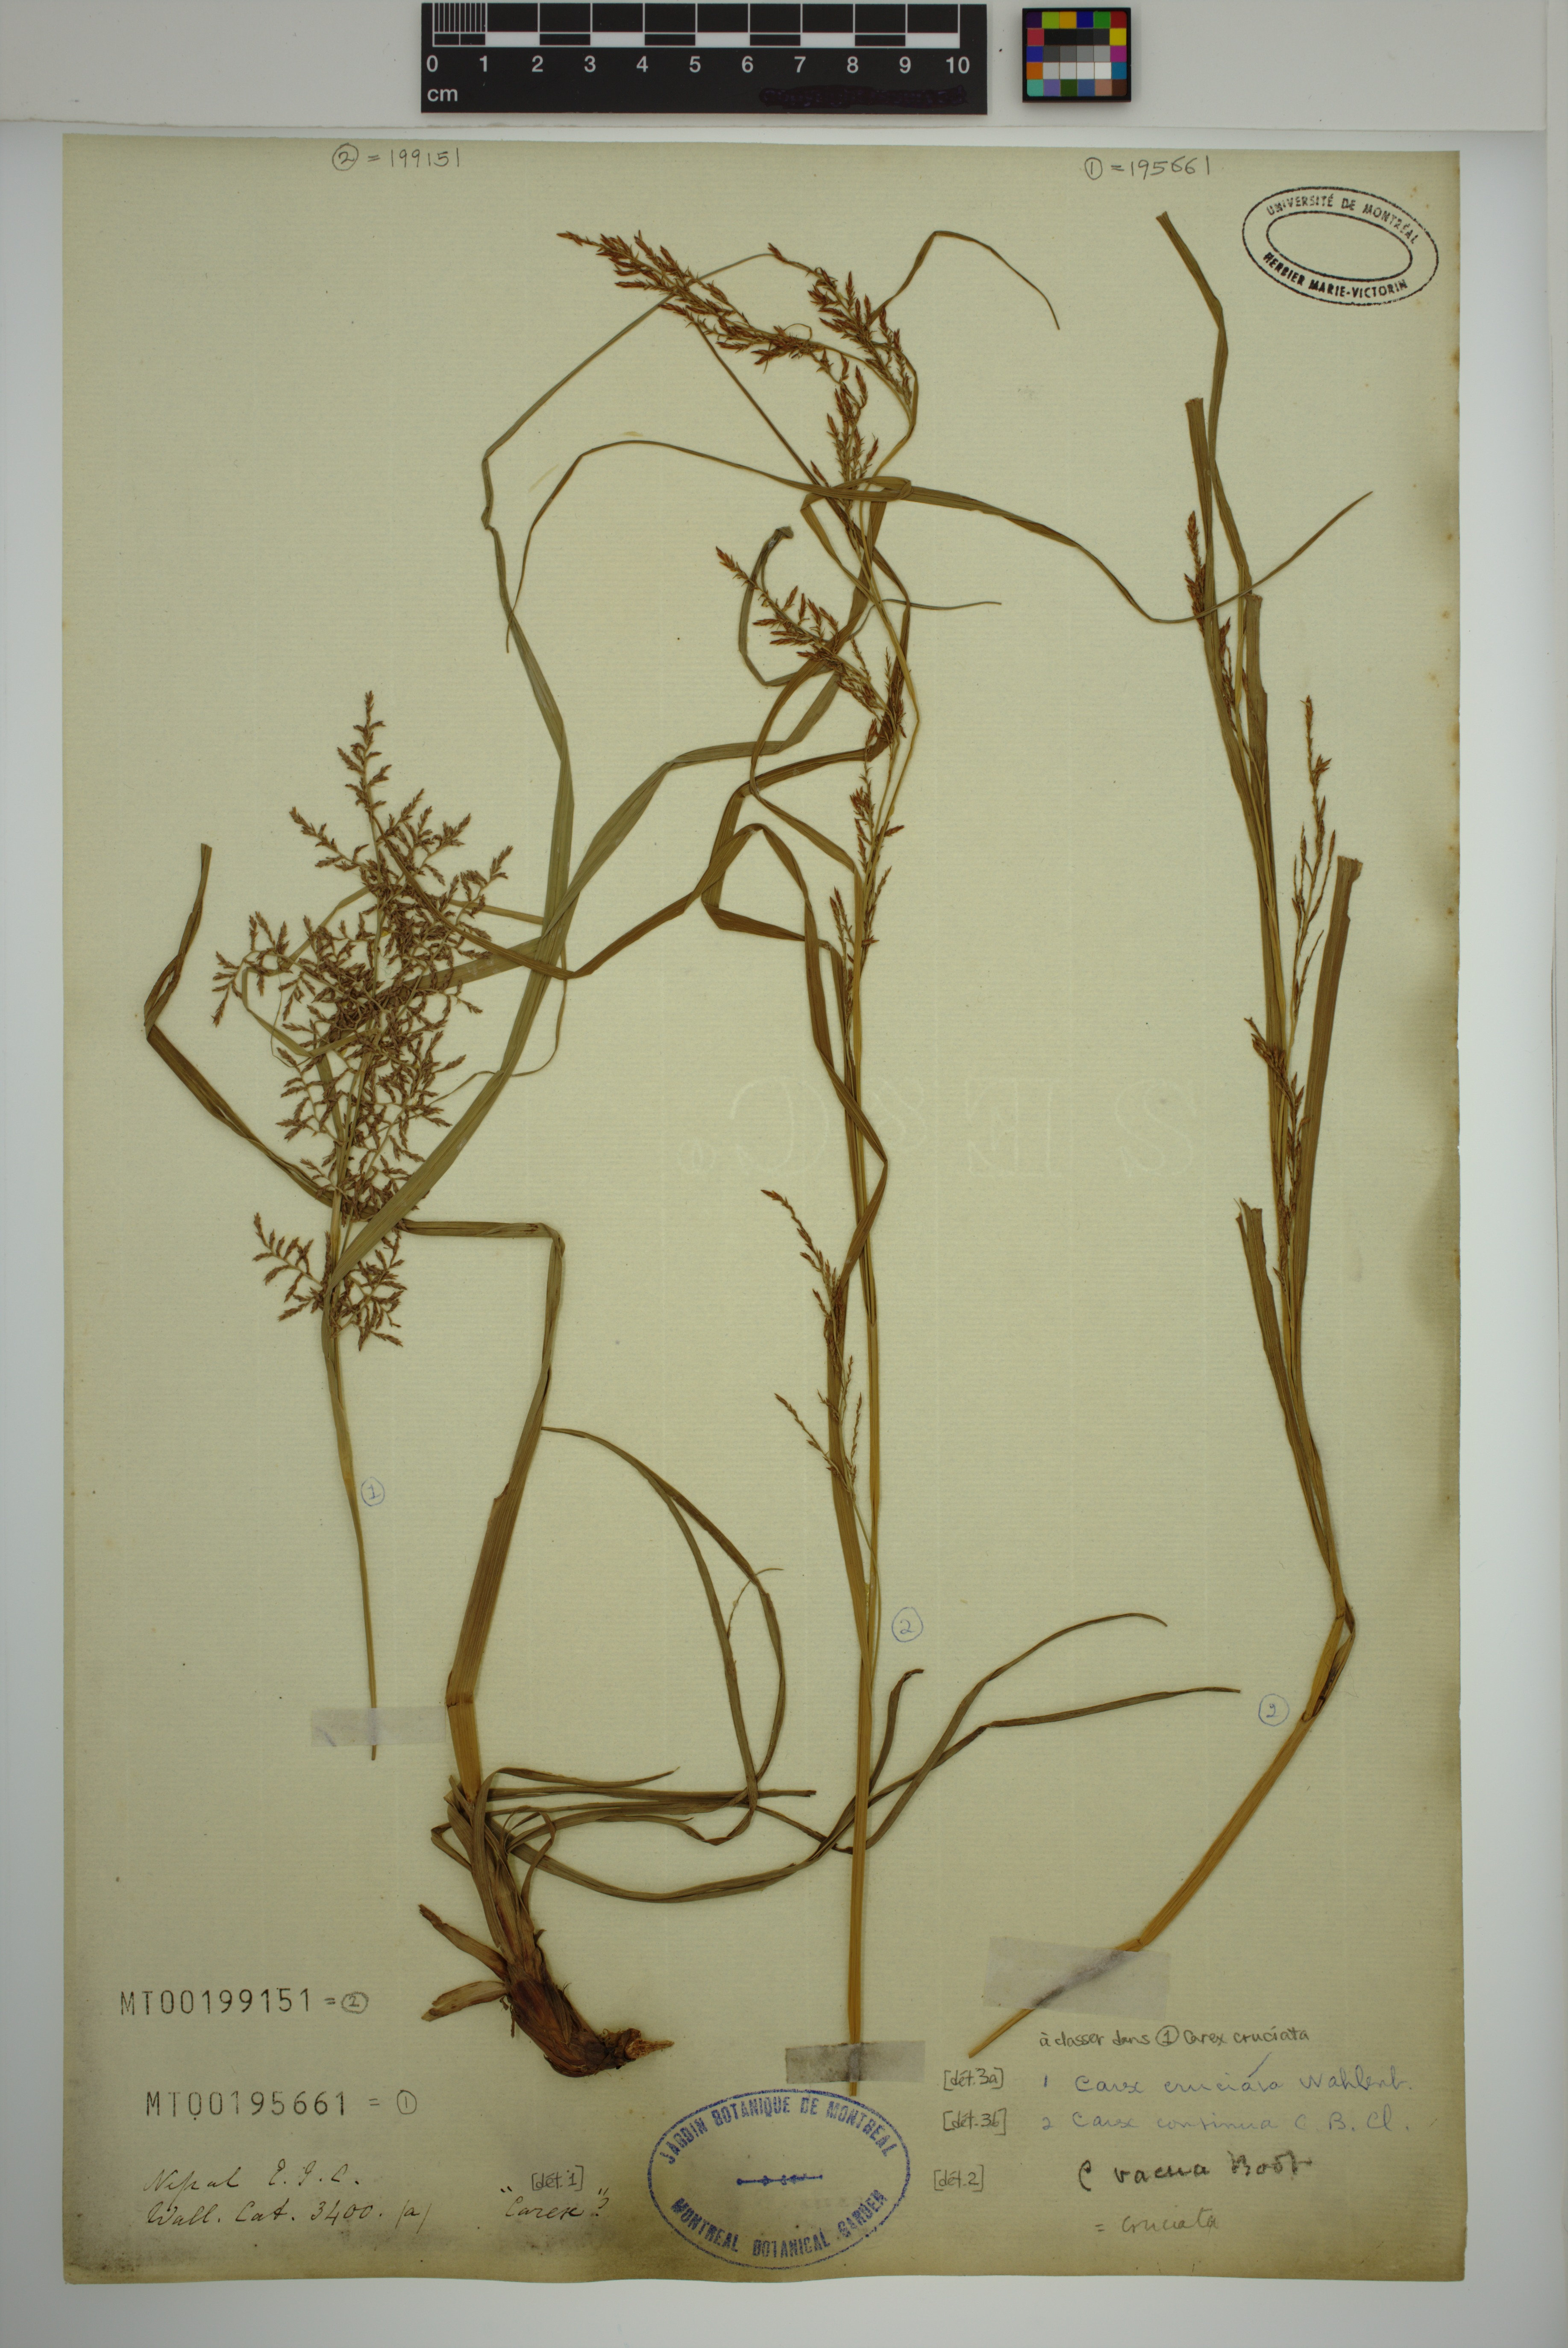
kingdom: Plantae
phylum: Tracheophyta
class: Liliopsida
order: Poales
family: Cyperaceae
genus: Carex
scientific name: Carex cruciata
